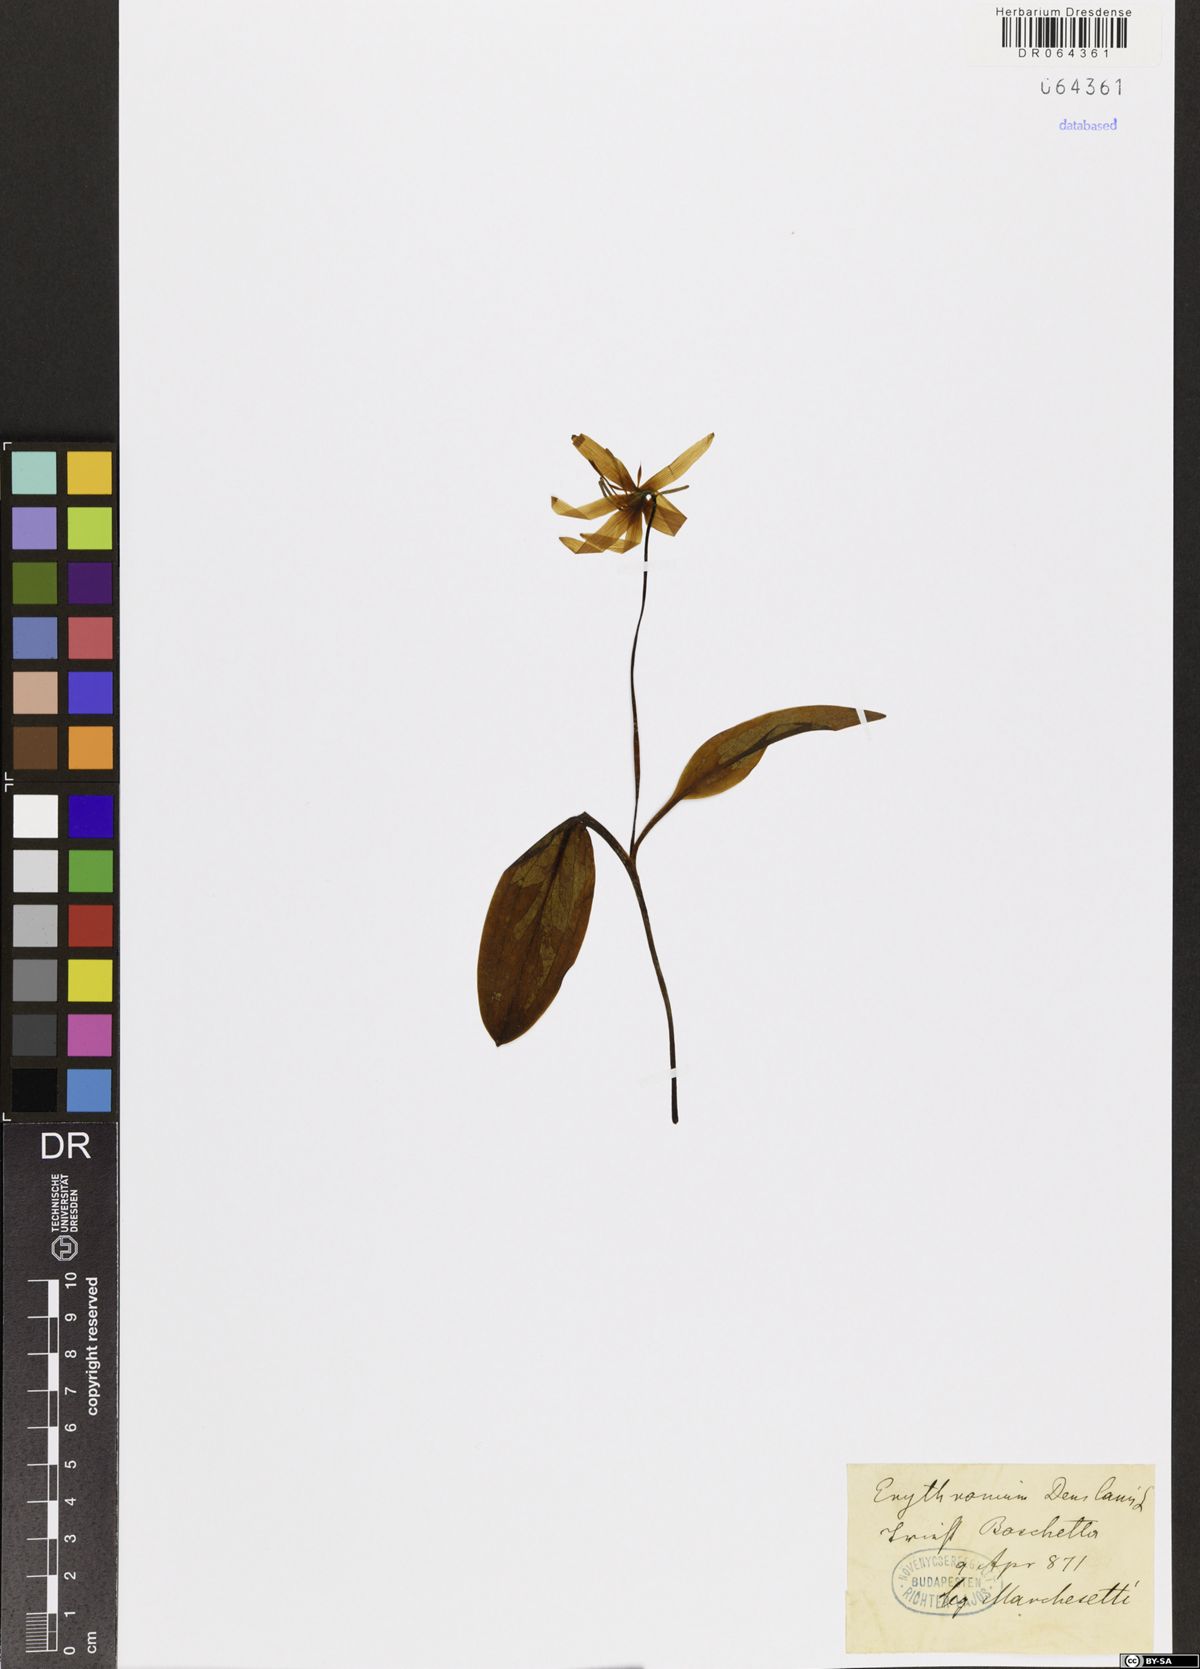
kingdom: Plantae
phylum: Tracheophyta
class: Liliopsida
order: Liliales
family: Liliaceae
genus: Erythronium
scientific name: Erythronium dens-canis
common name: Dog's-tooth-violet
